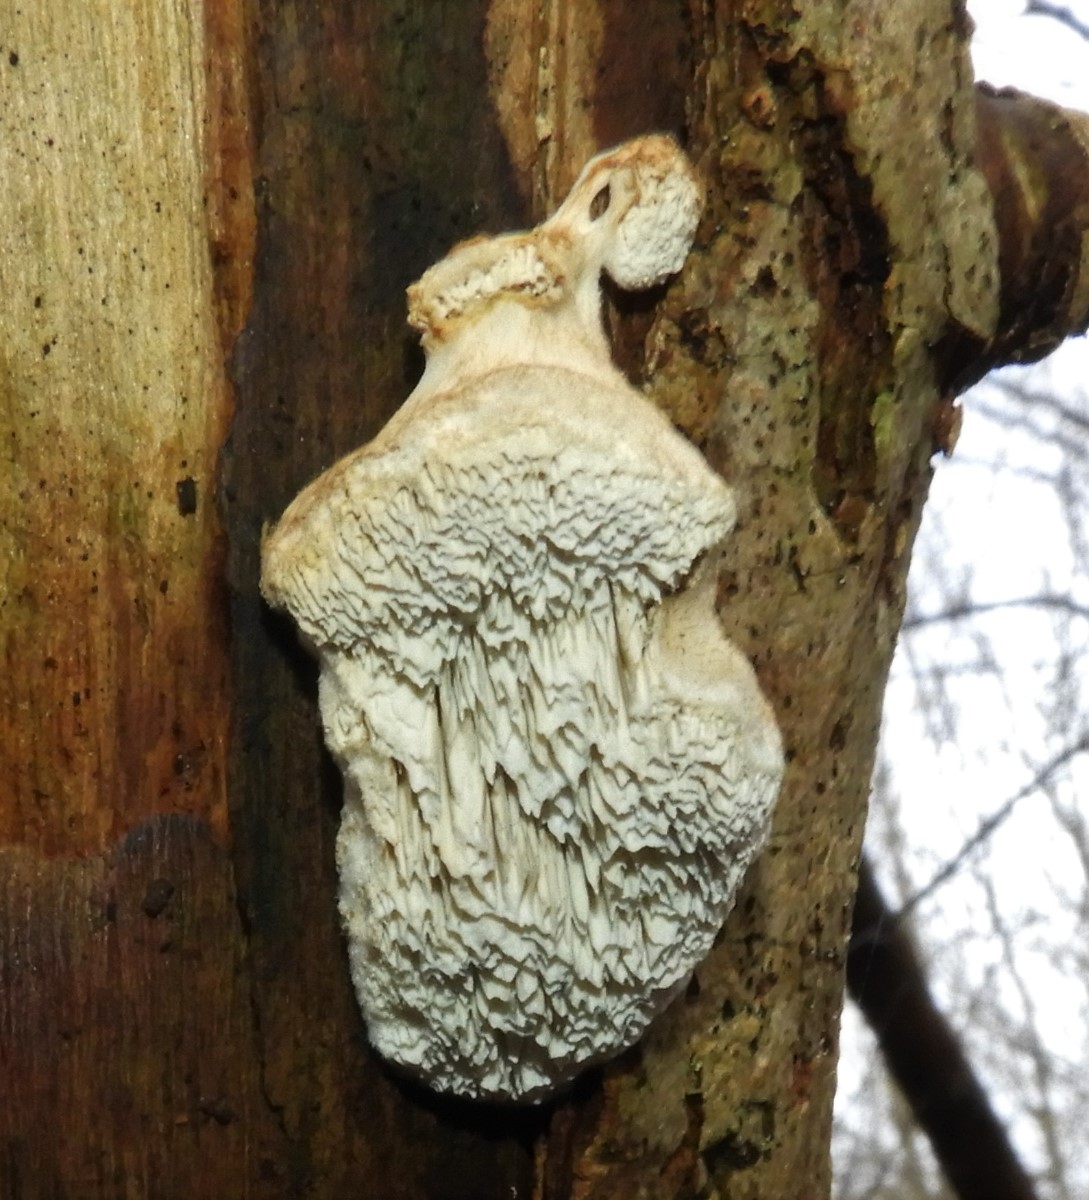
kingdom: Fungi
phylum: Basidiomycota
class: Agaricomycetes
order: Polyporales
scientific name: Polyporales
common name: poresvampordenen
